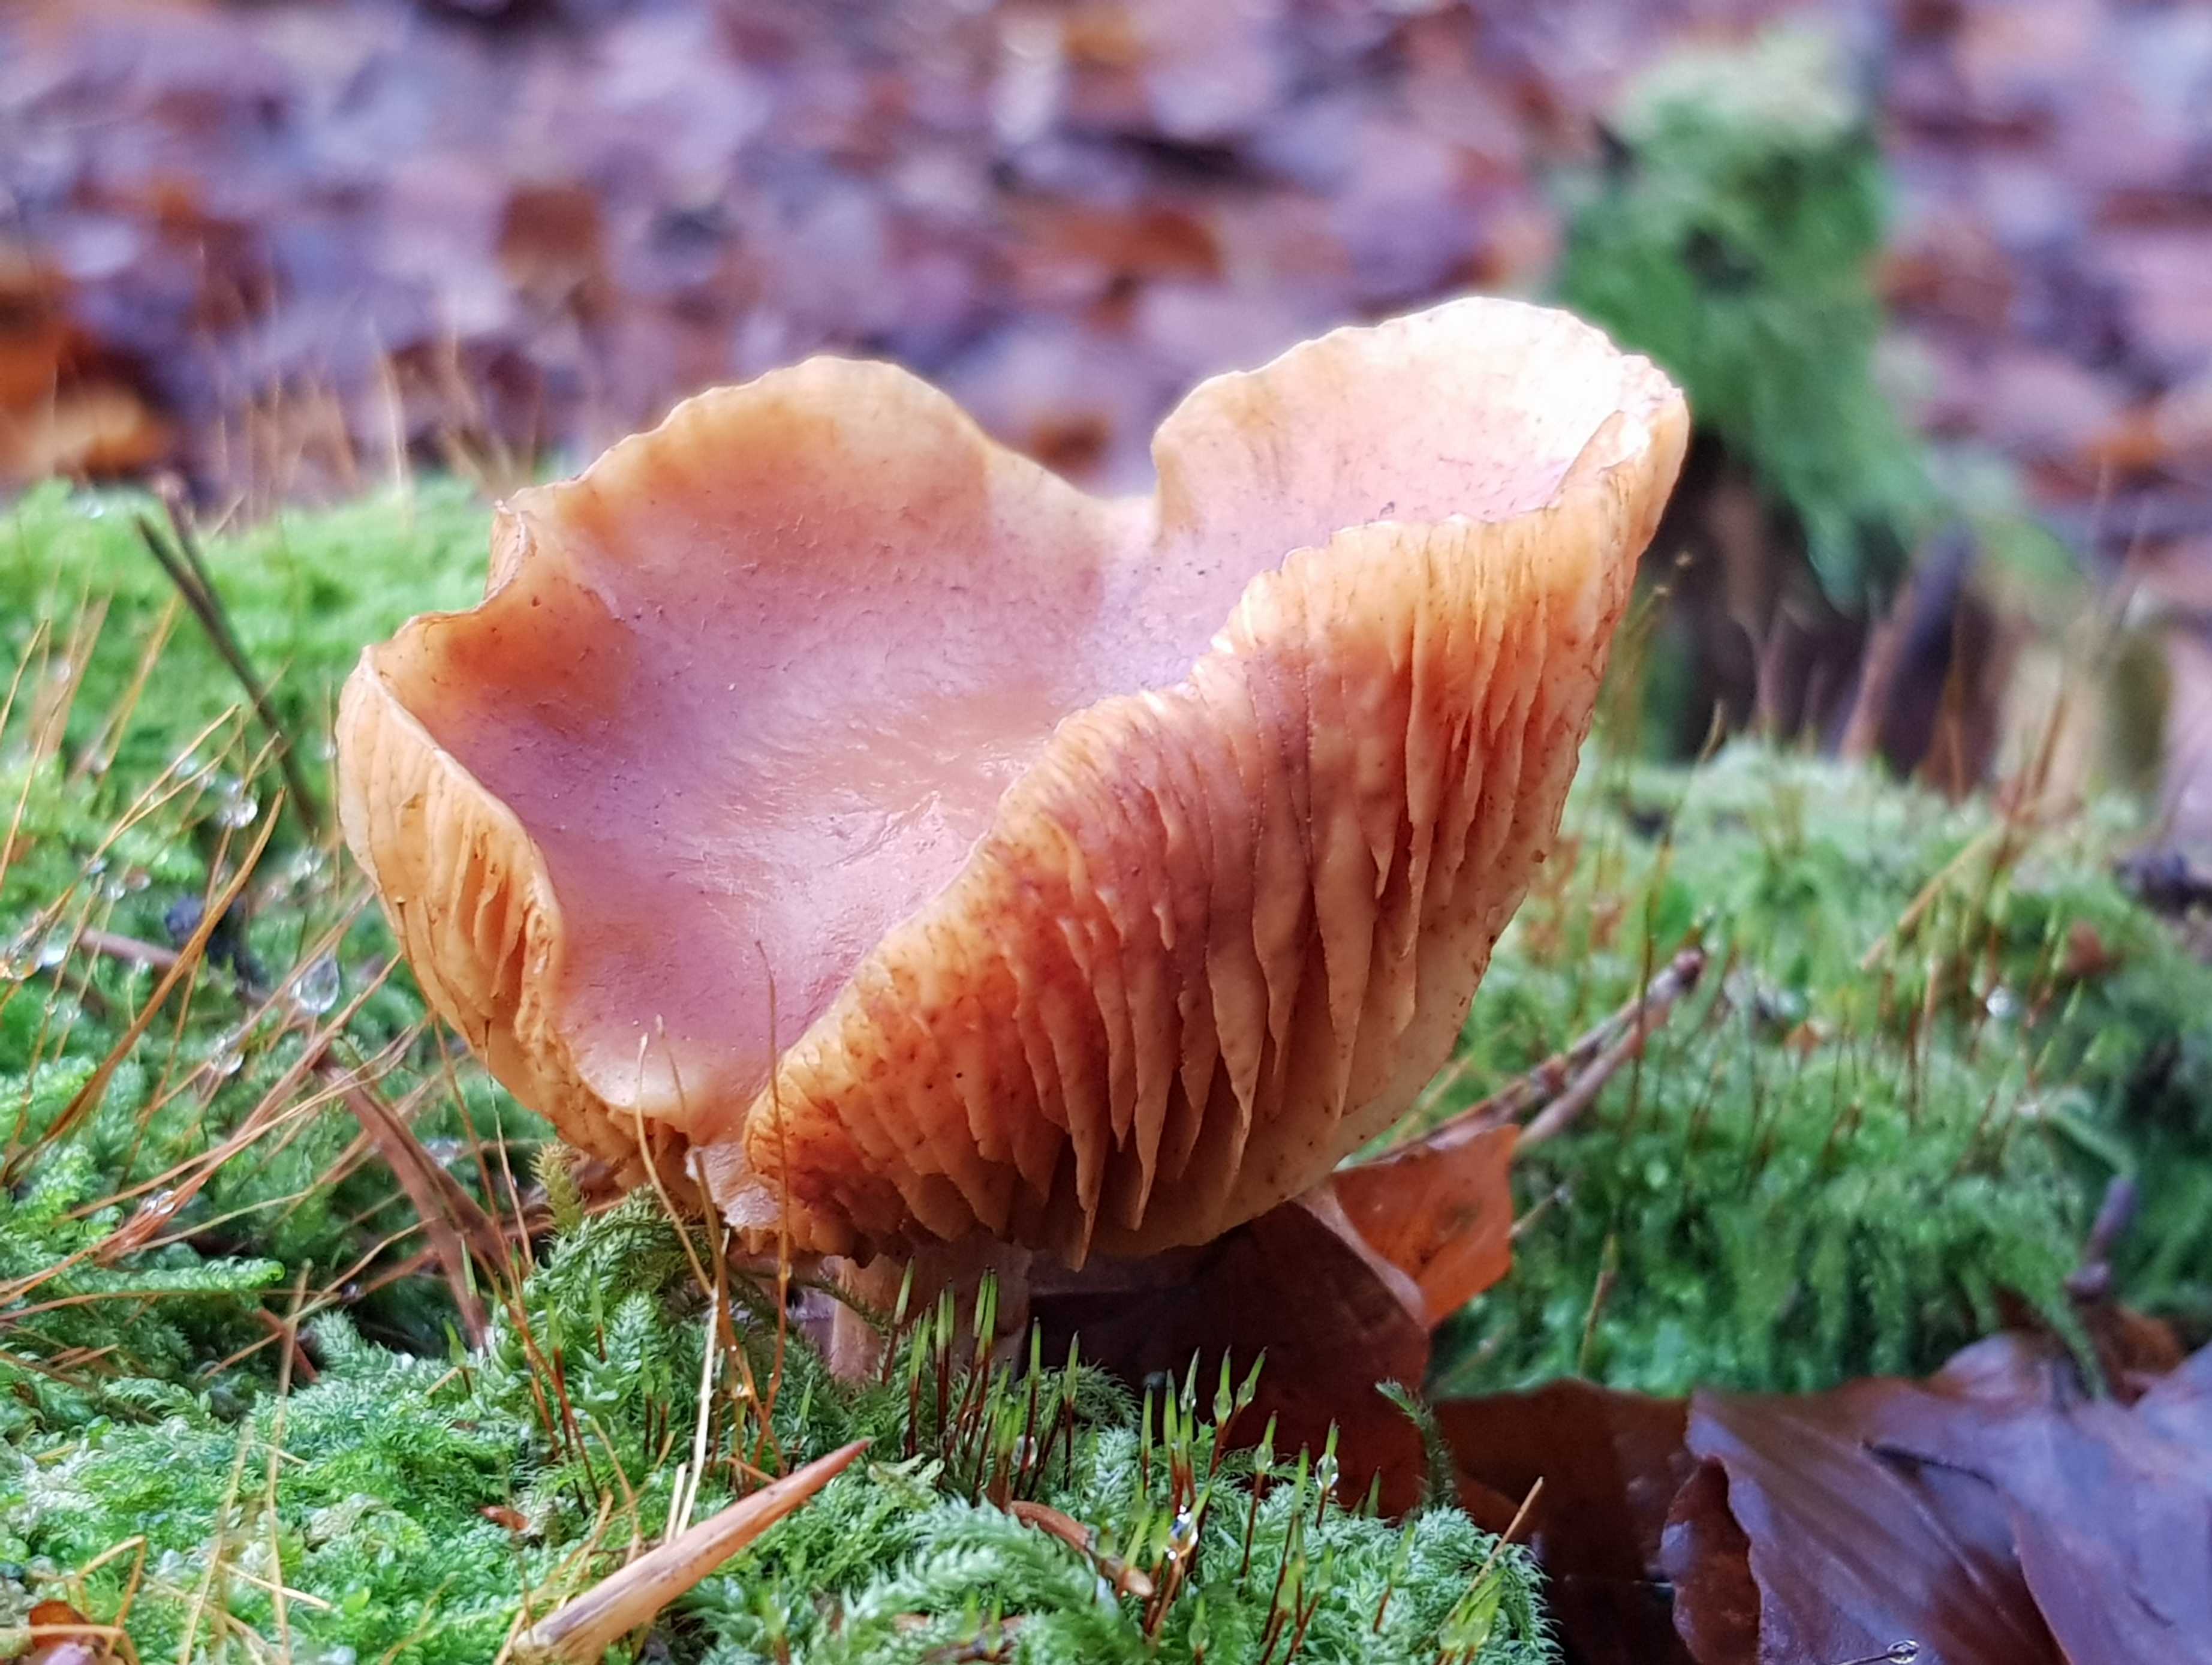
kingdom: Fungi
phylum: Basidiomycota
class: Agaricomycetes
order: Agaricales
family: Hymenogastraceae
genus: Gymnopilus
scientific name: Gymnopilus penetrans
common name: plettet flammehat
